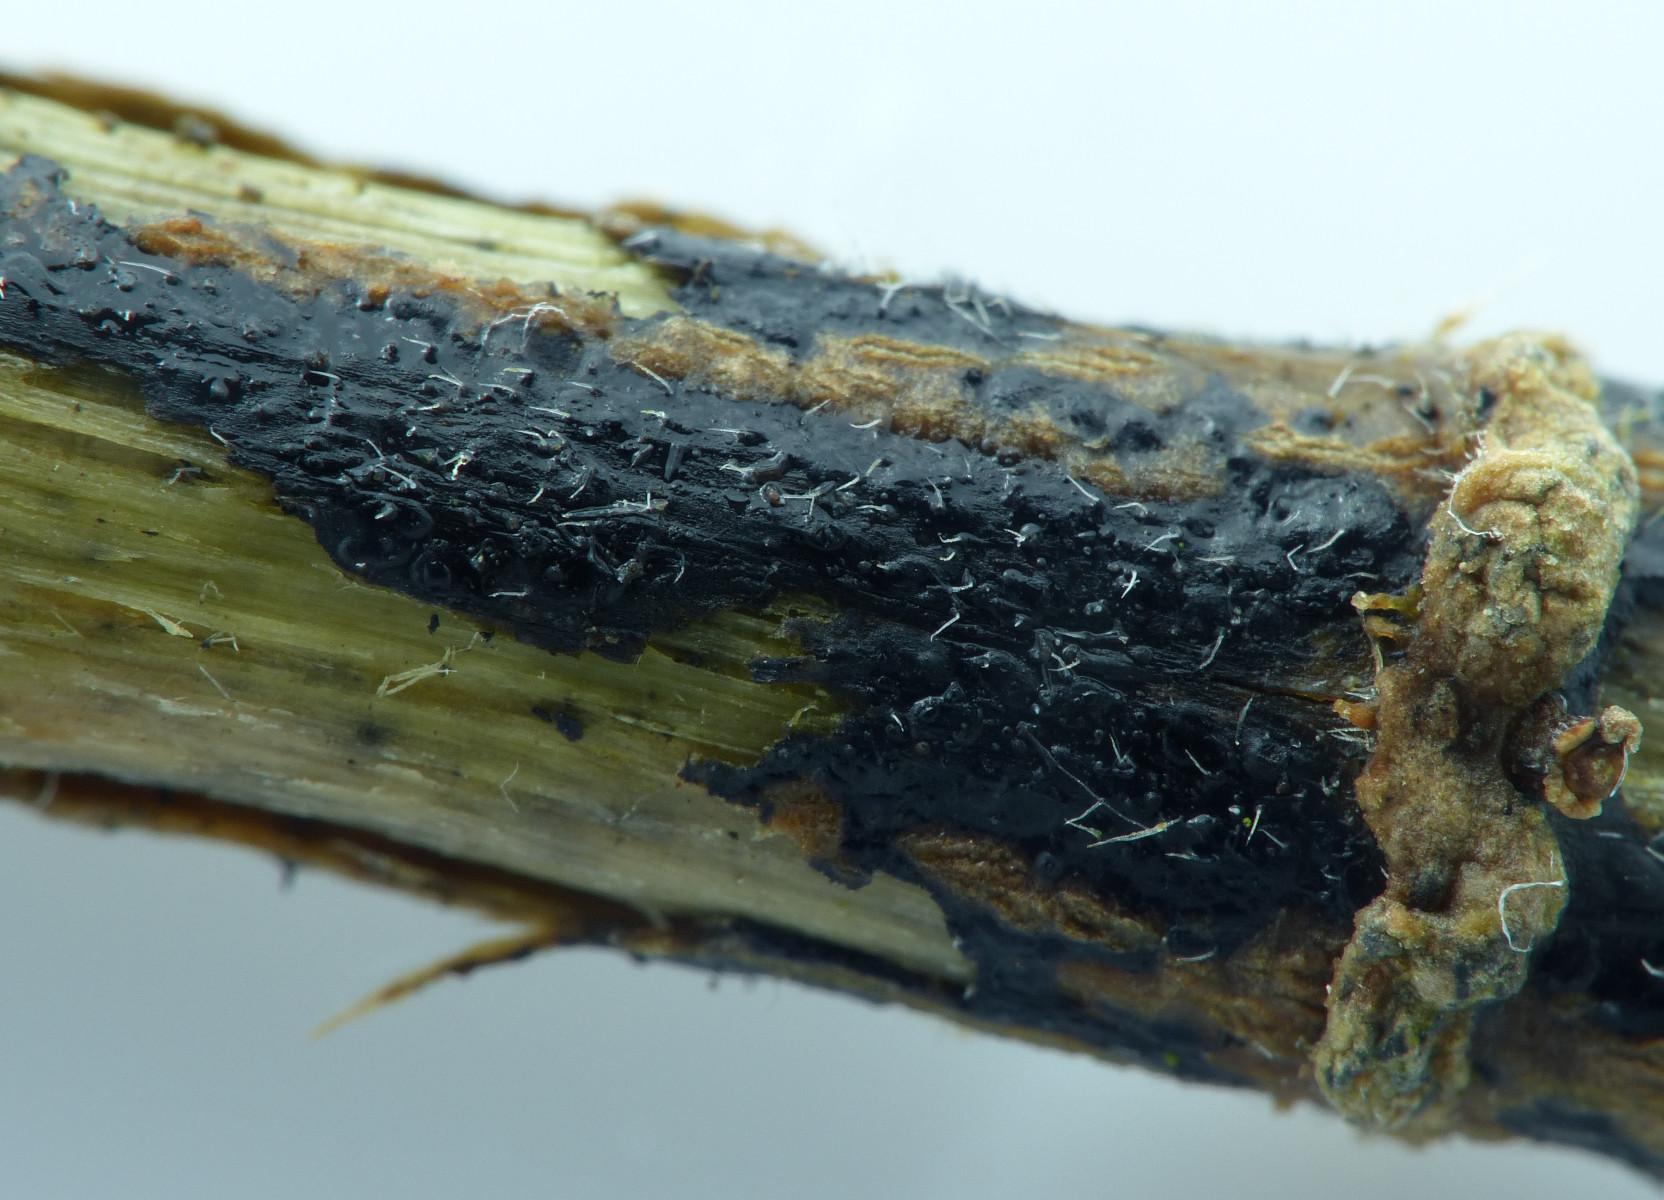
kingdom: Fungi
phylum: Ascomycota
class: Sordariomycetes
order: Diaporthales
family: Diaporthaceae
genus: Diaporthopsis
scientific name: Diaporthopsis urticae
